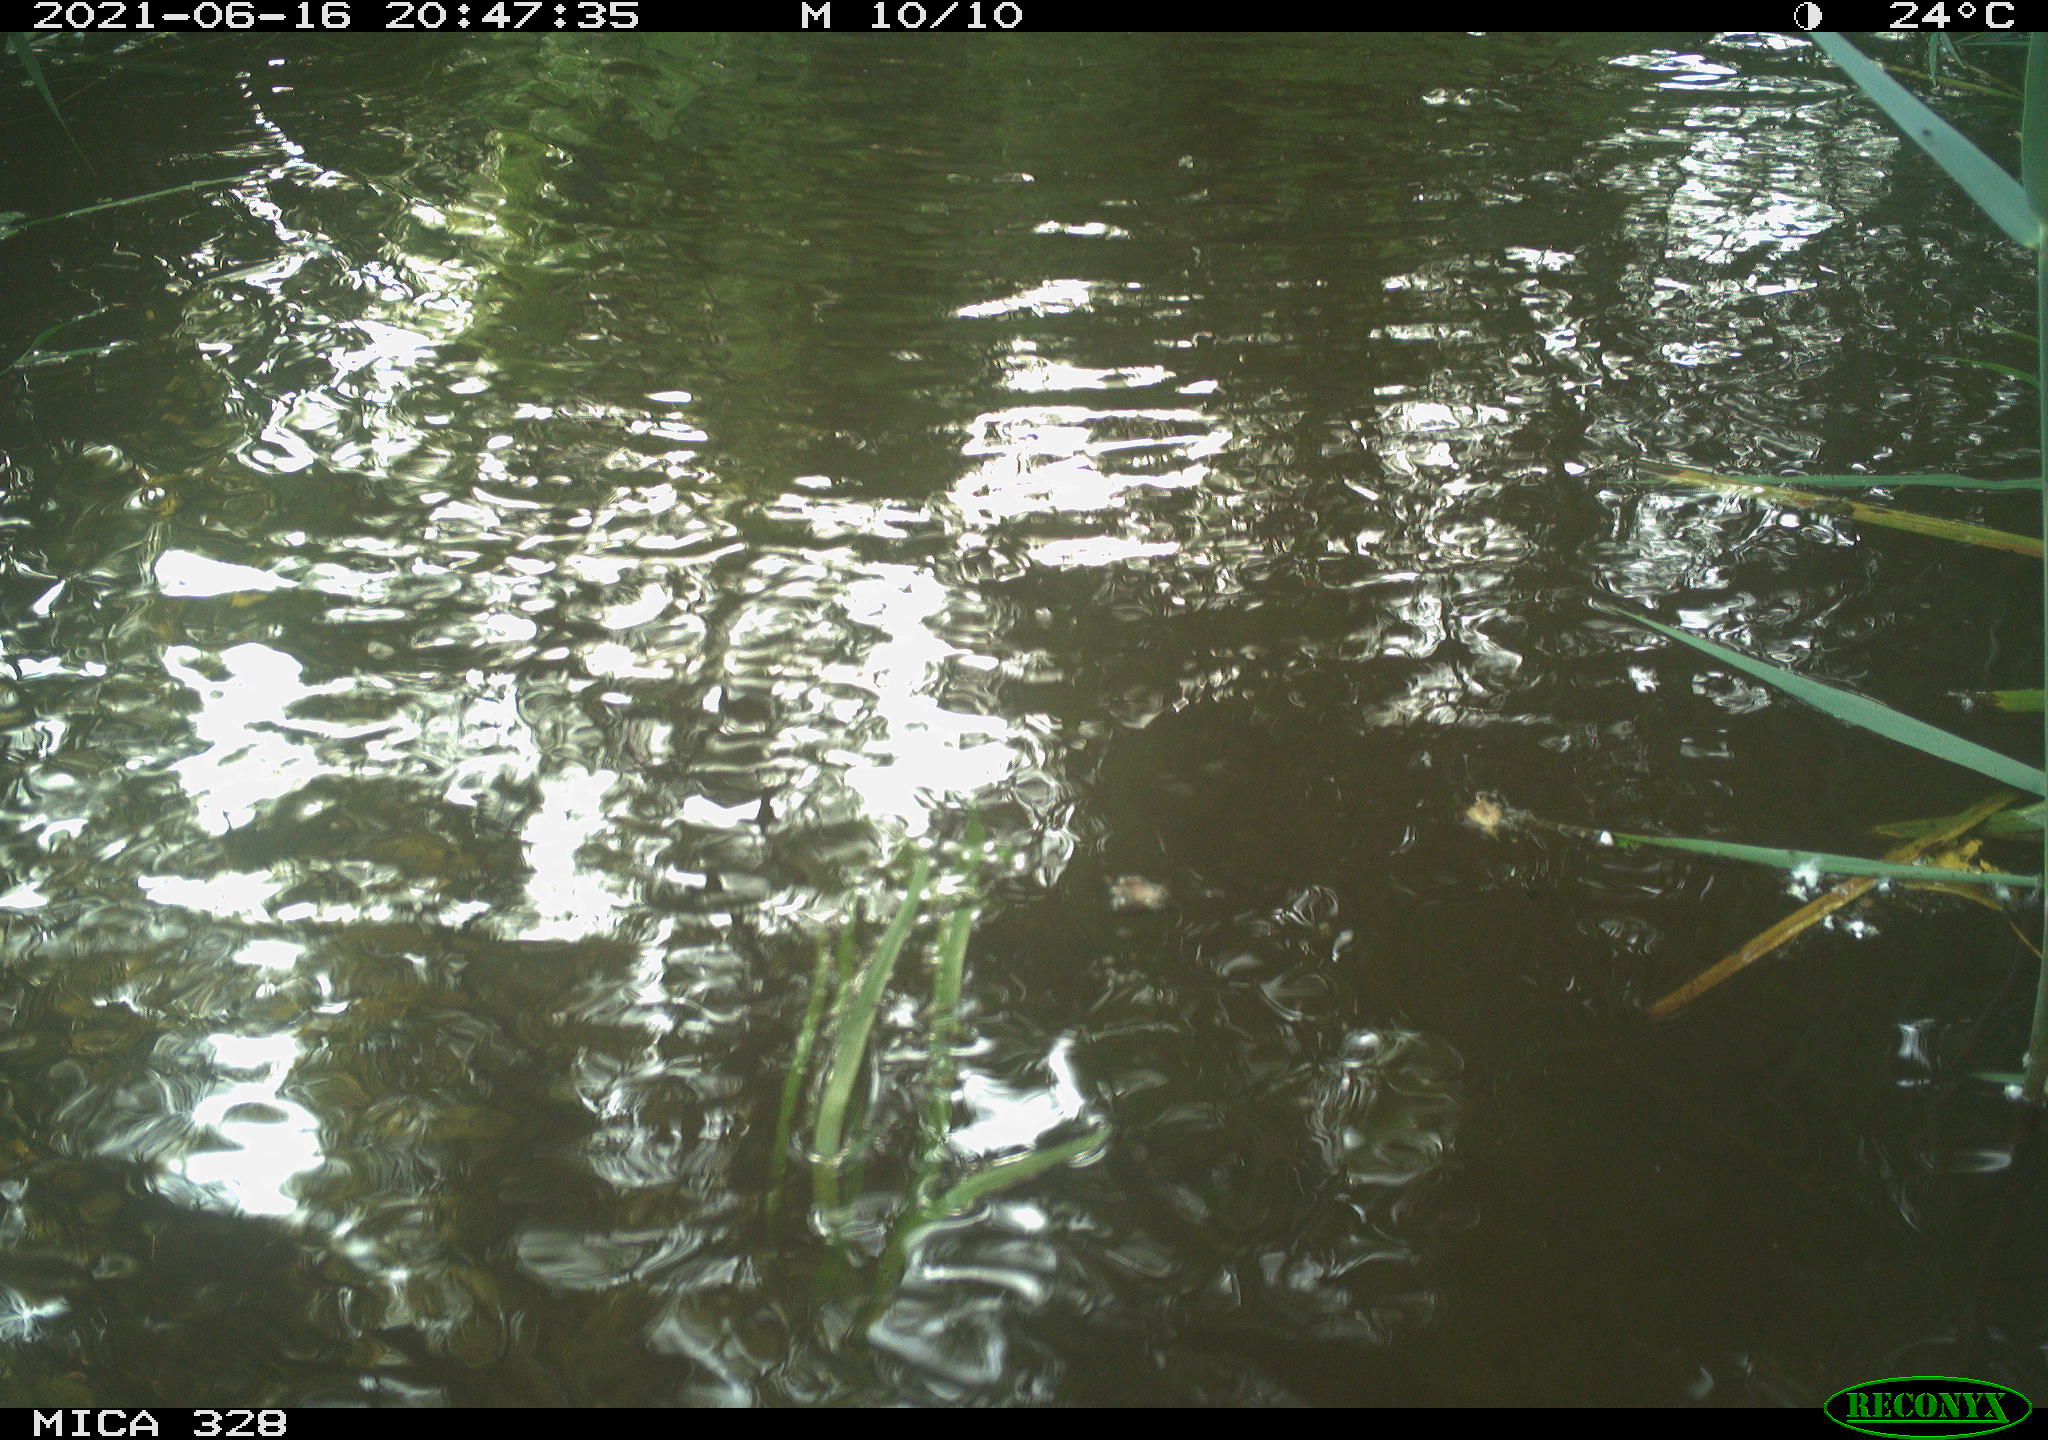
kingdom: Animalia
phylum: Chordata
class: Mammalia
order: Rodentia
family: Cricetidae
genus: Ondatra
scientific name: Ondatra zibethicus
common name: Muskrat
